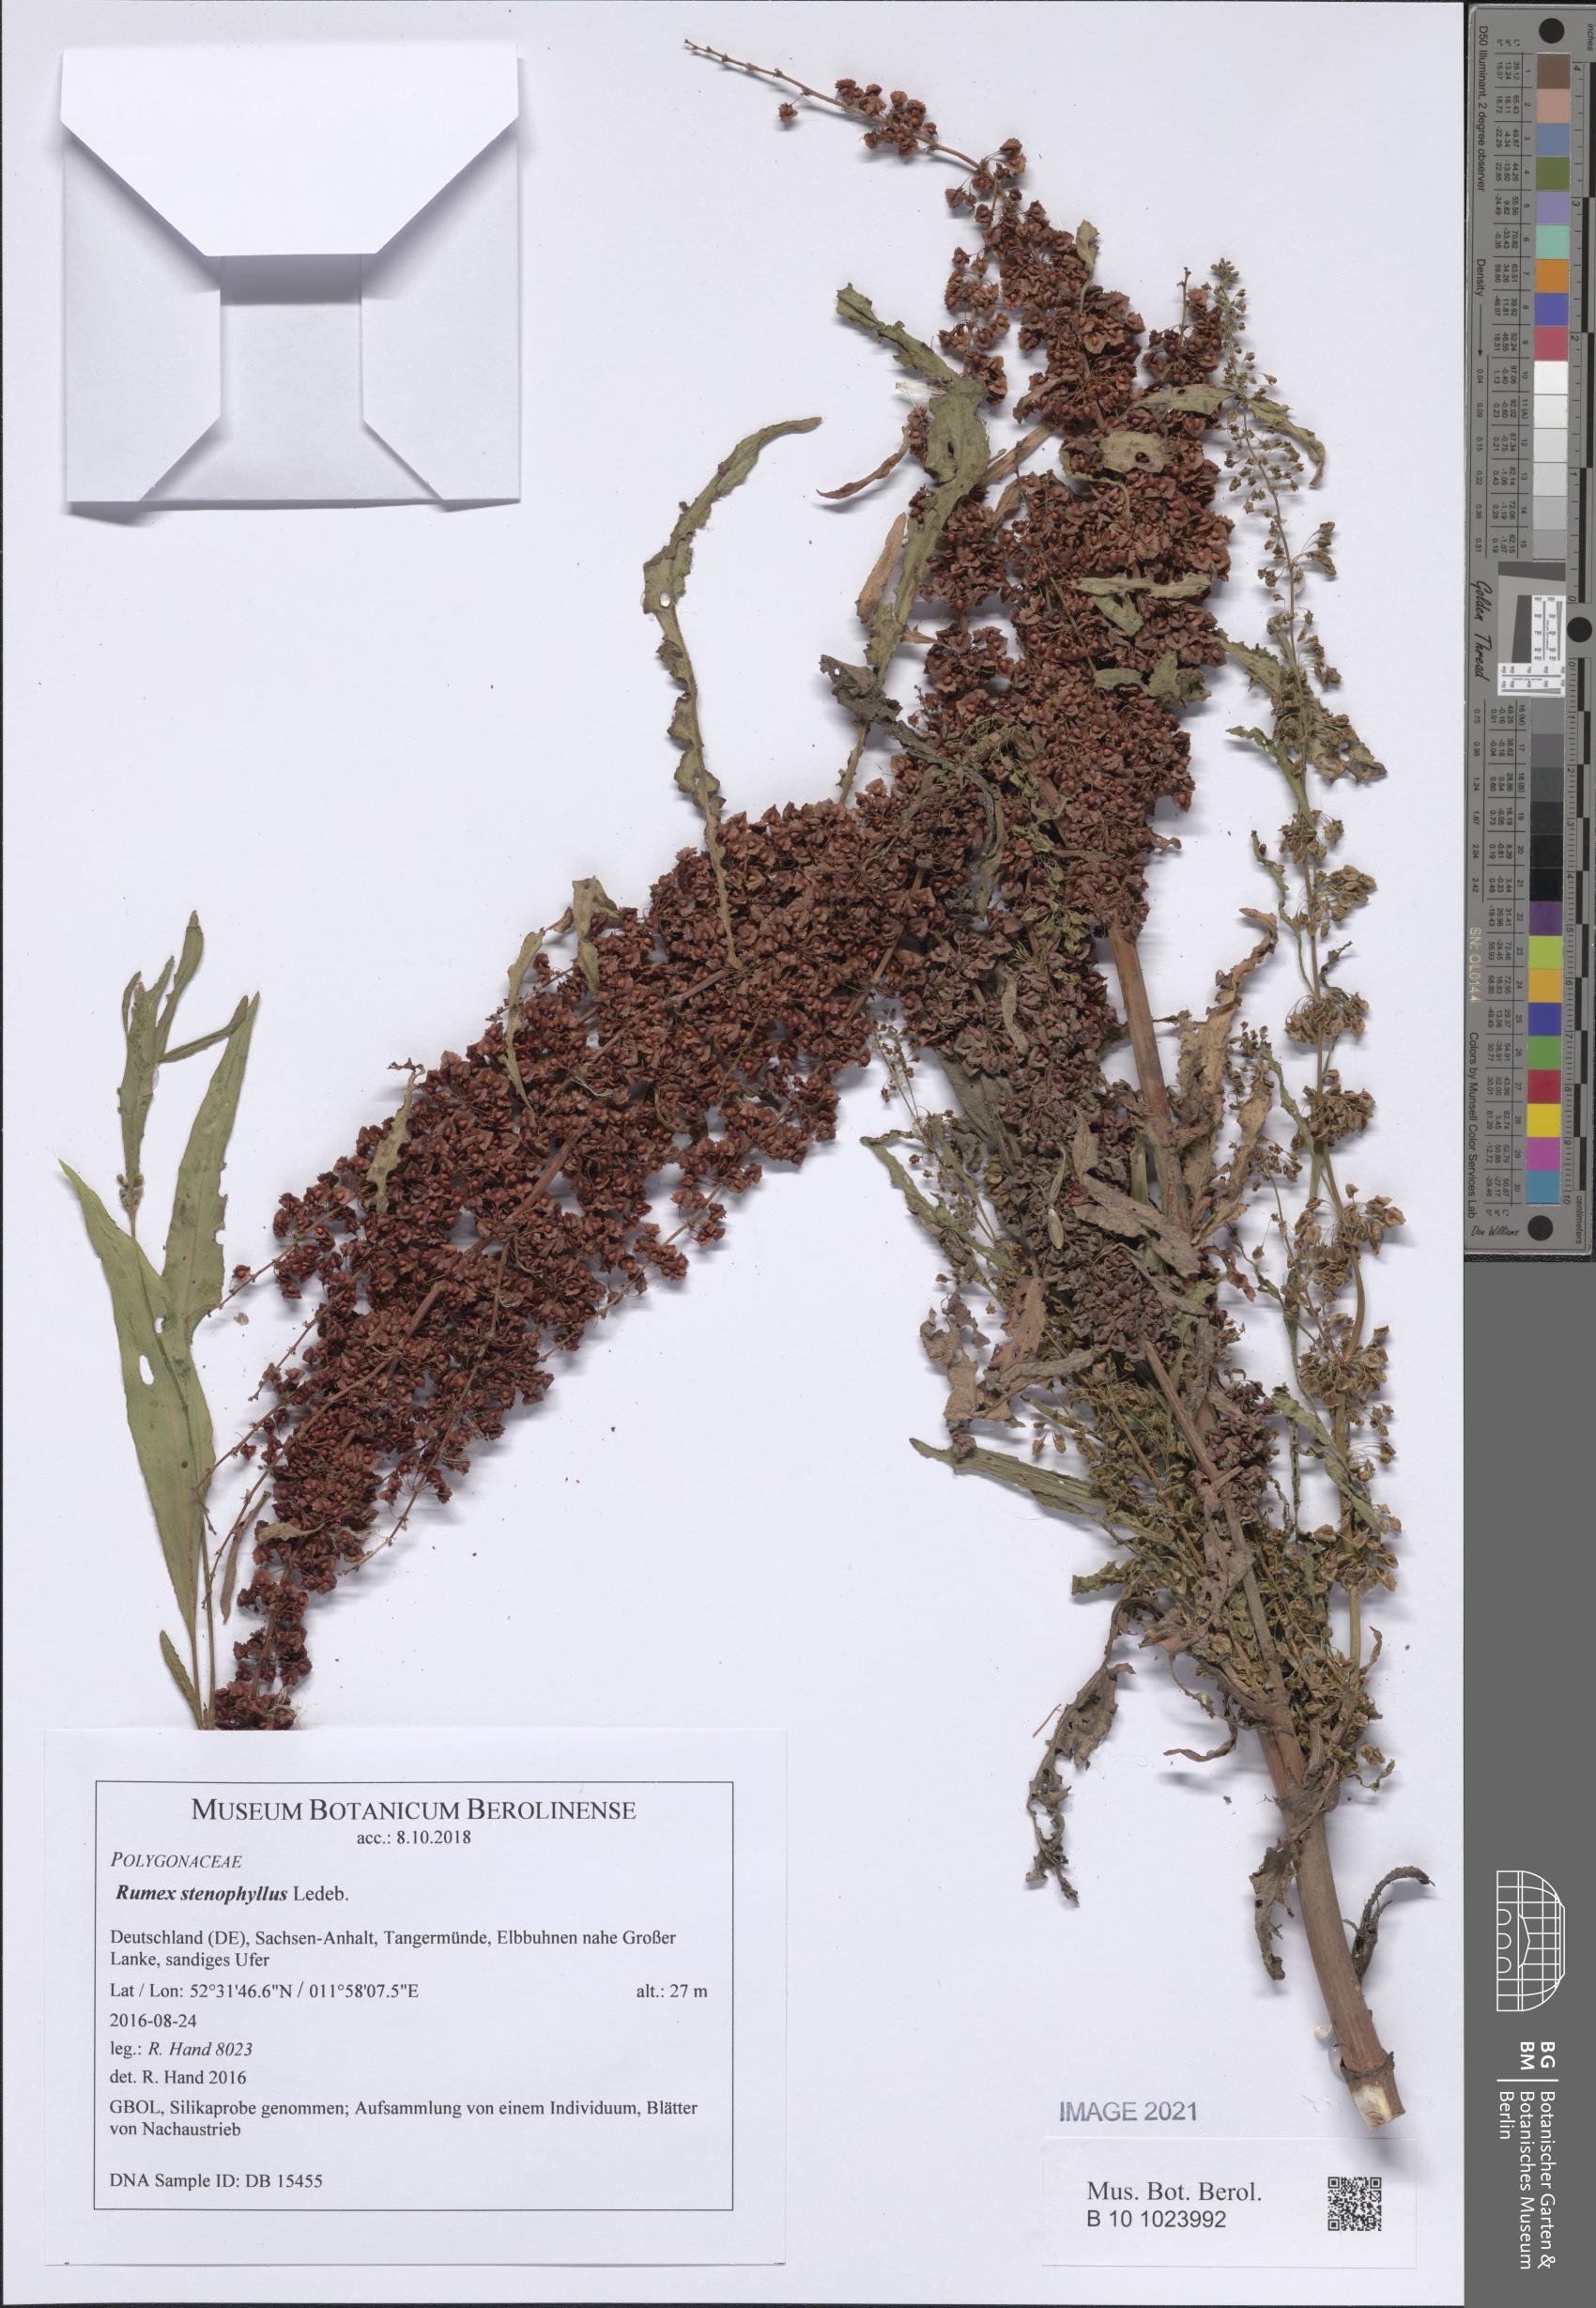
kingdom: Plantae
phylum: Tracheophyta
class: Magnoliopsida
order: Caryophyllales
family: Polygonaceae
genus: Rumex
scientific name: Rumex stenophyllus
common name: Narrowleaf dock
